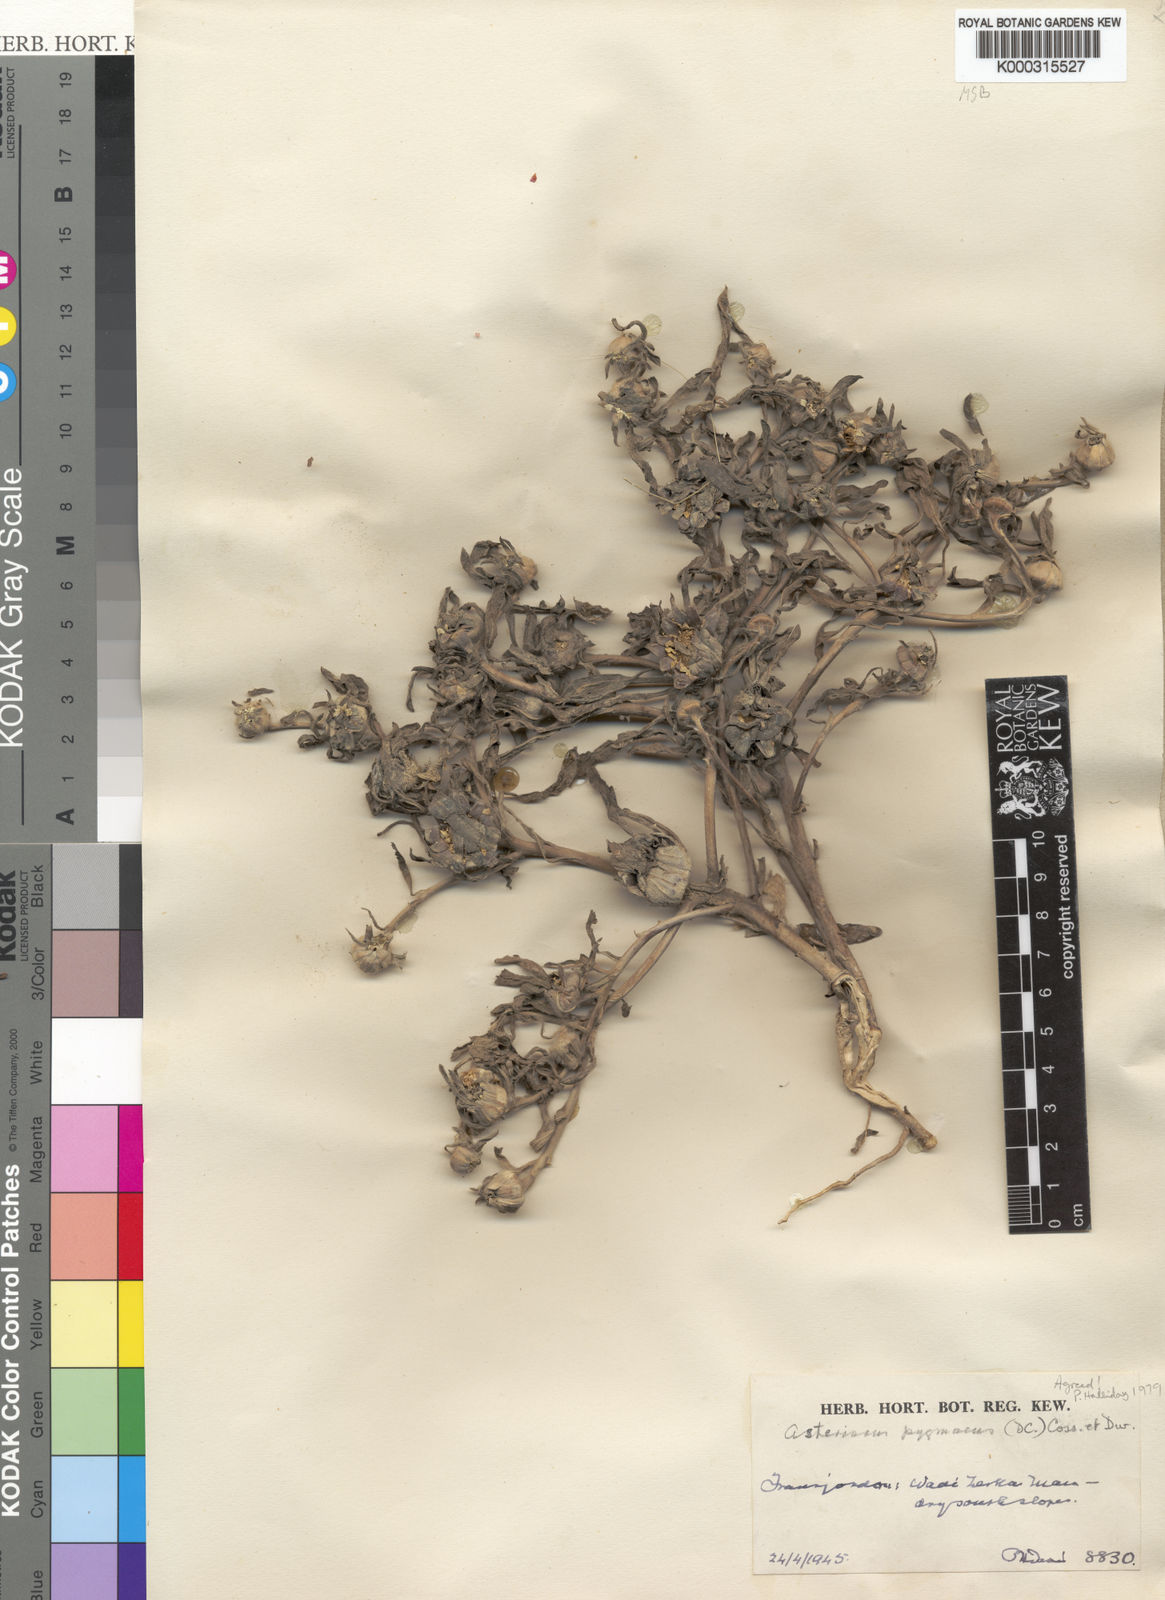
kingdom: Plantae
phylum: Tracheophyta
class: Magnoliopsida
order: Asterales
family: Asteraceae
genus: Pallenis
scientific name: Pallenis hierochuntica
